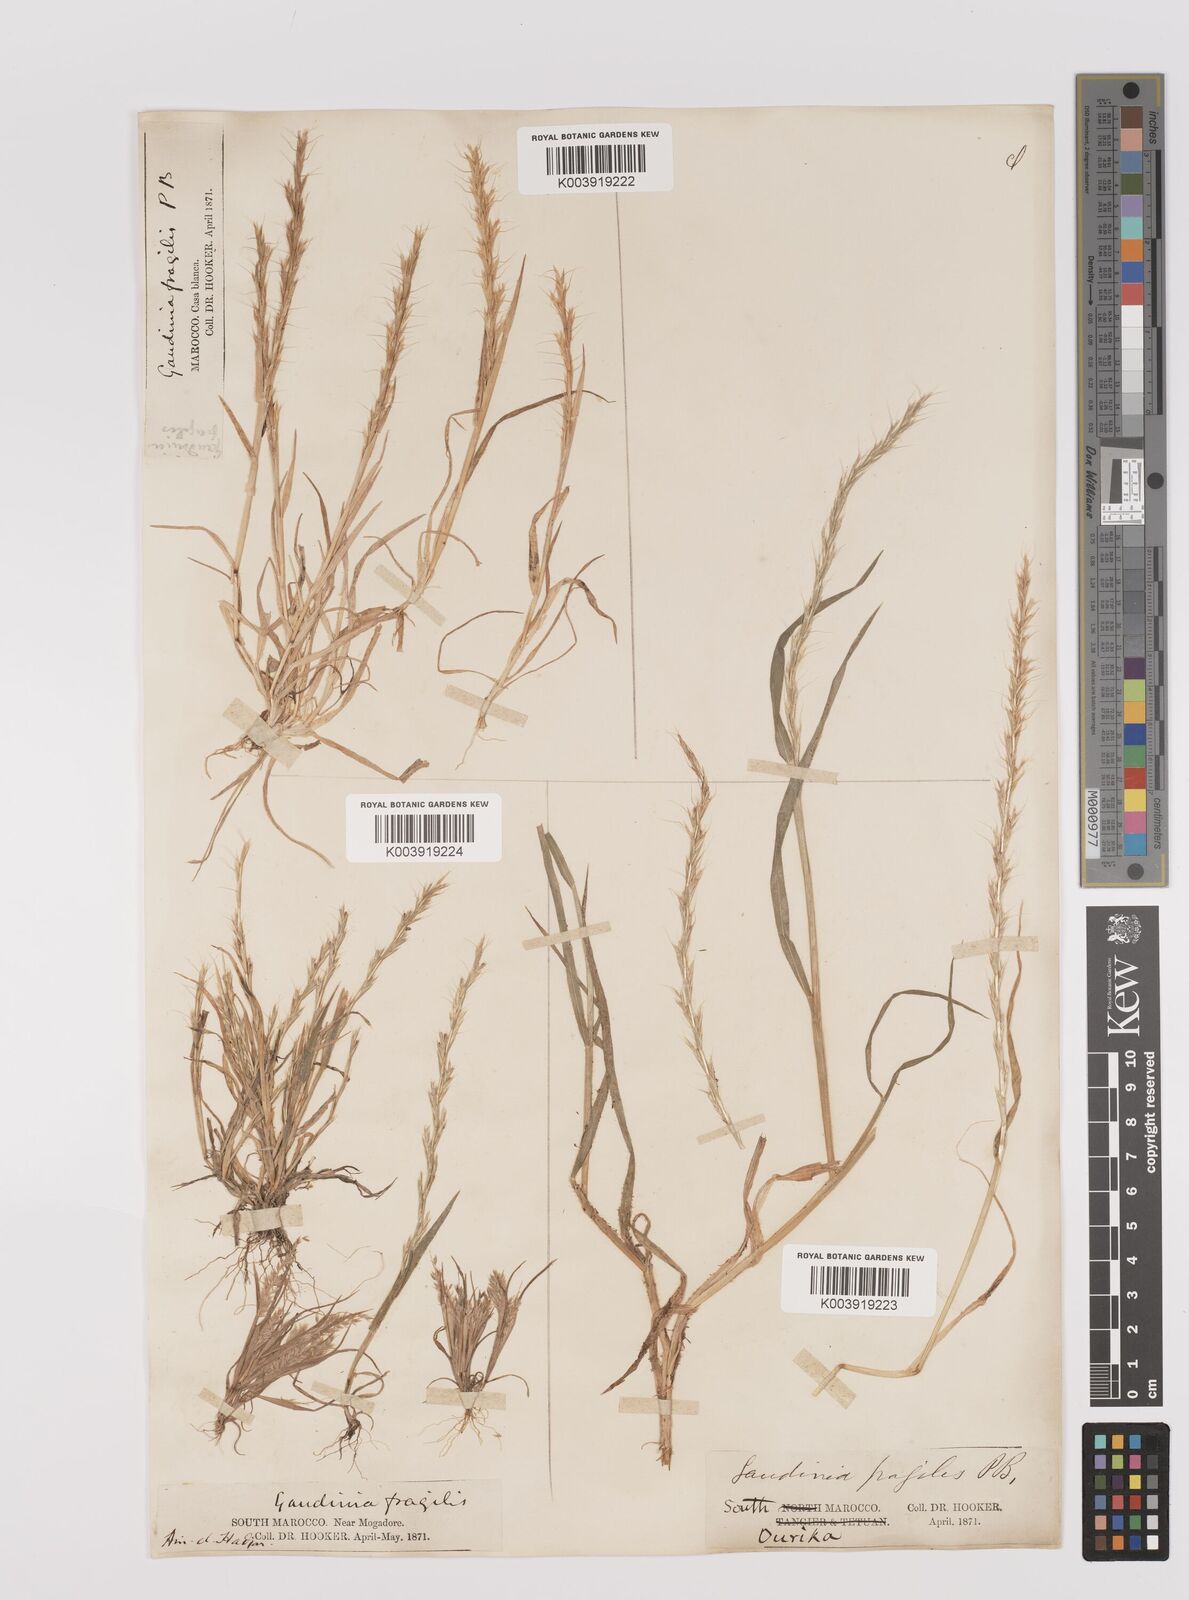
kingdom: Plantae
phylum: Tracheophyta
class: Liliopsida
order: Poales
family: Poaceae
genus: Gaudinia
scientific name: Gaudinia fragilis
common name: French oat-grass
